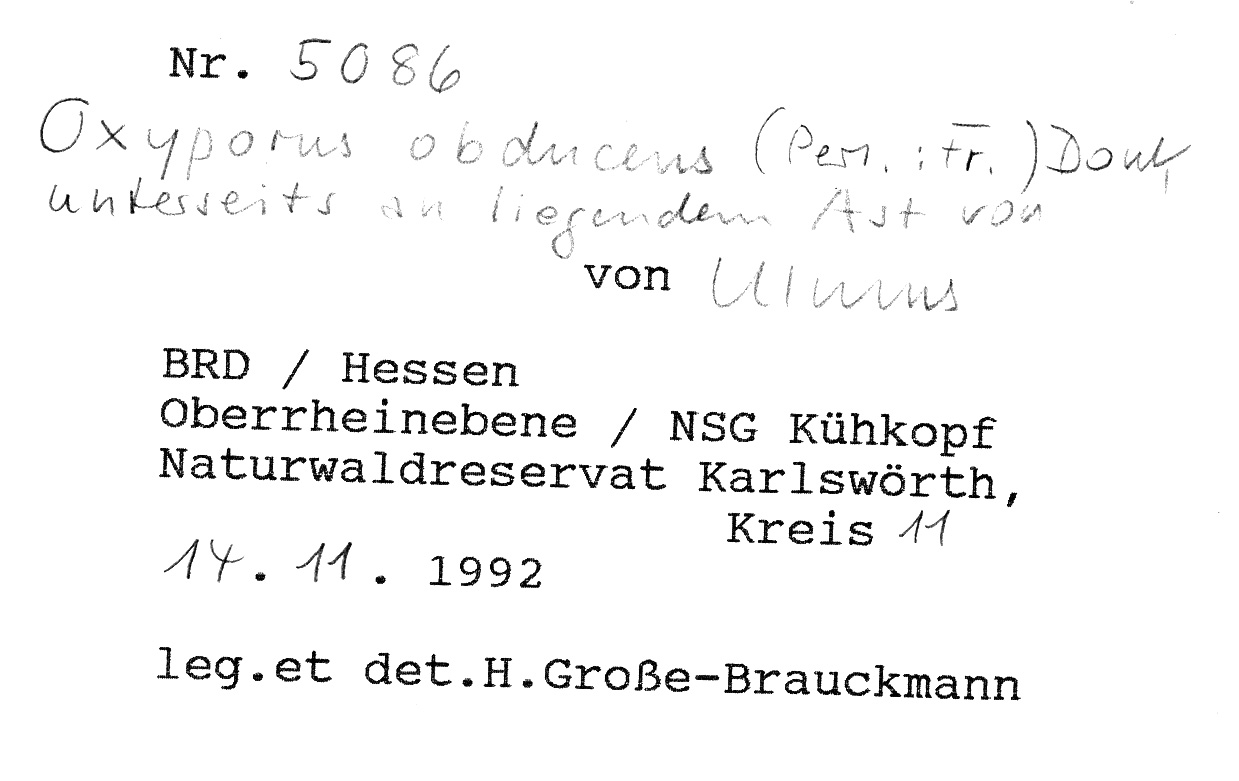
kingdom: Plantae
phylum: Tracheophyta
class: Magnoliopsida
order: Rosales
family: Ulmaceae
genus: Ulmus
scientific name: Ulmus
